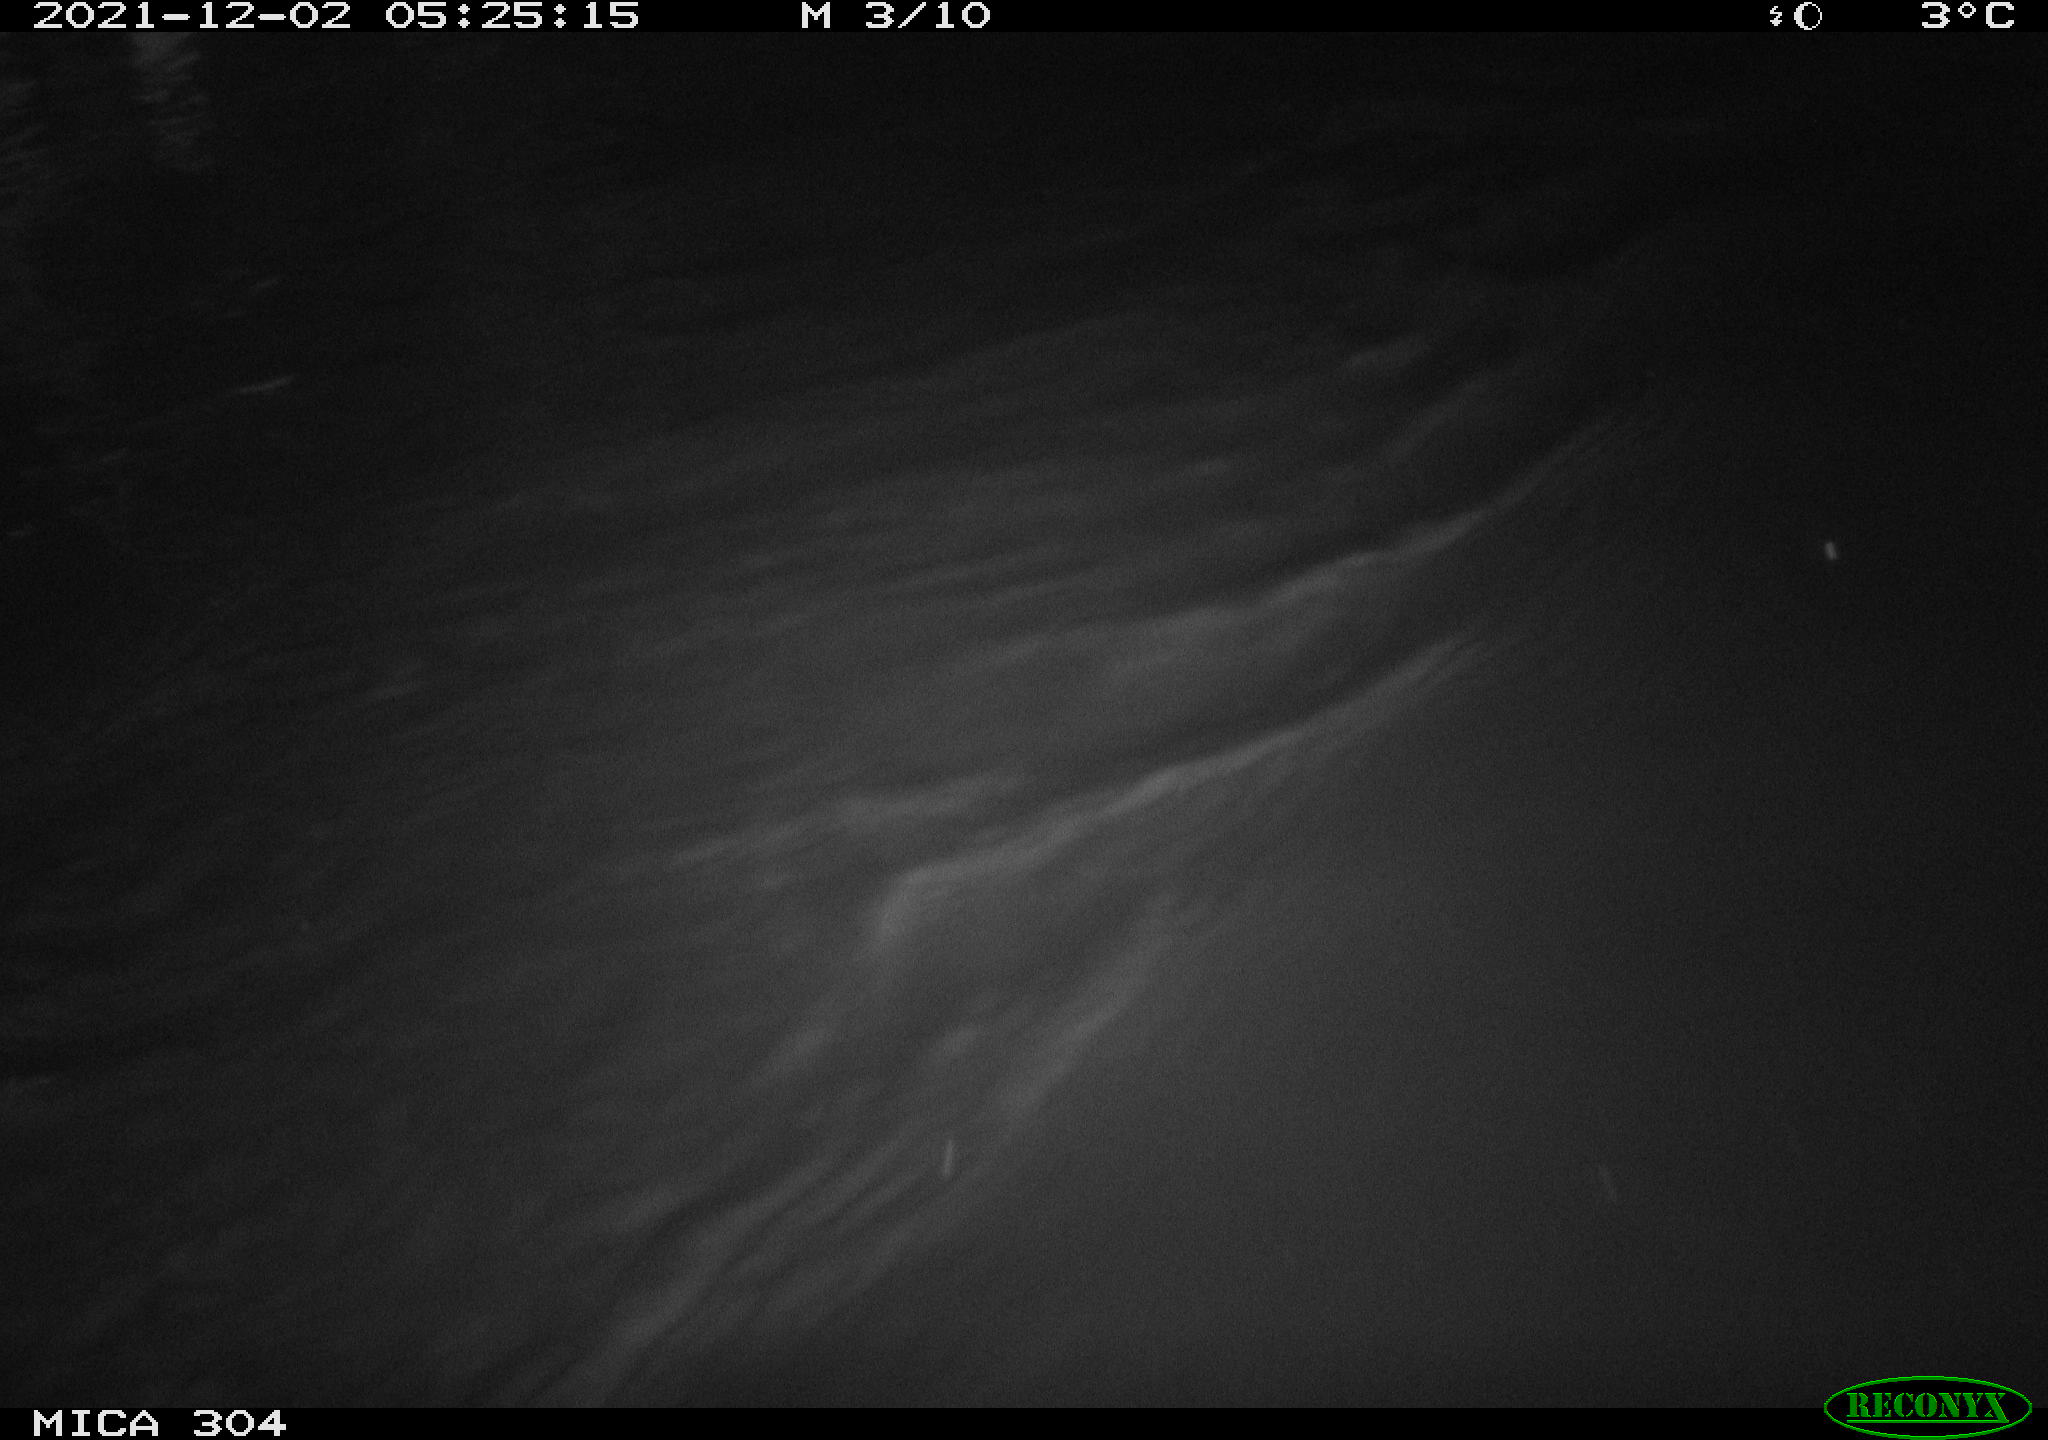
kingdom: Animalia
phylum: Chordata
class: Mammalia
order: Rodentia
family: Cricetidae
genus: Ondatra
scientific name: Ondatra zibethicus
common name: Muskrat
